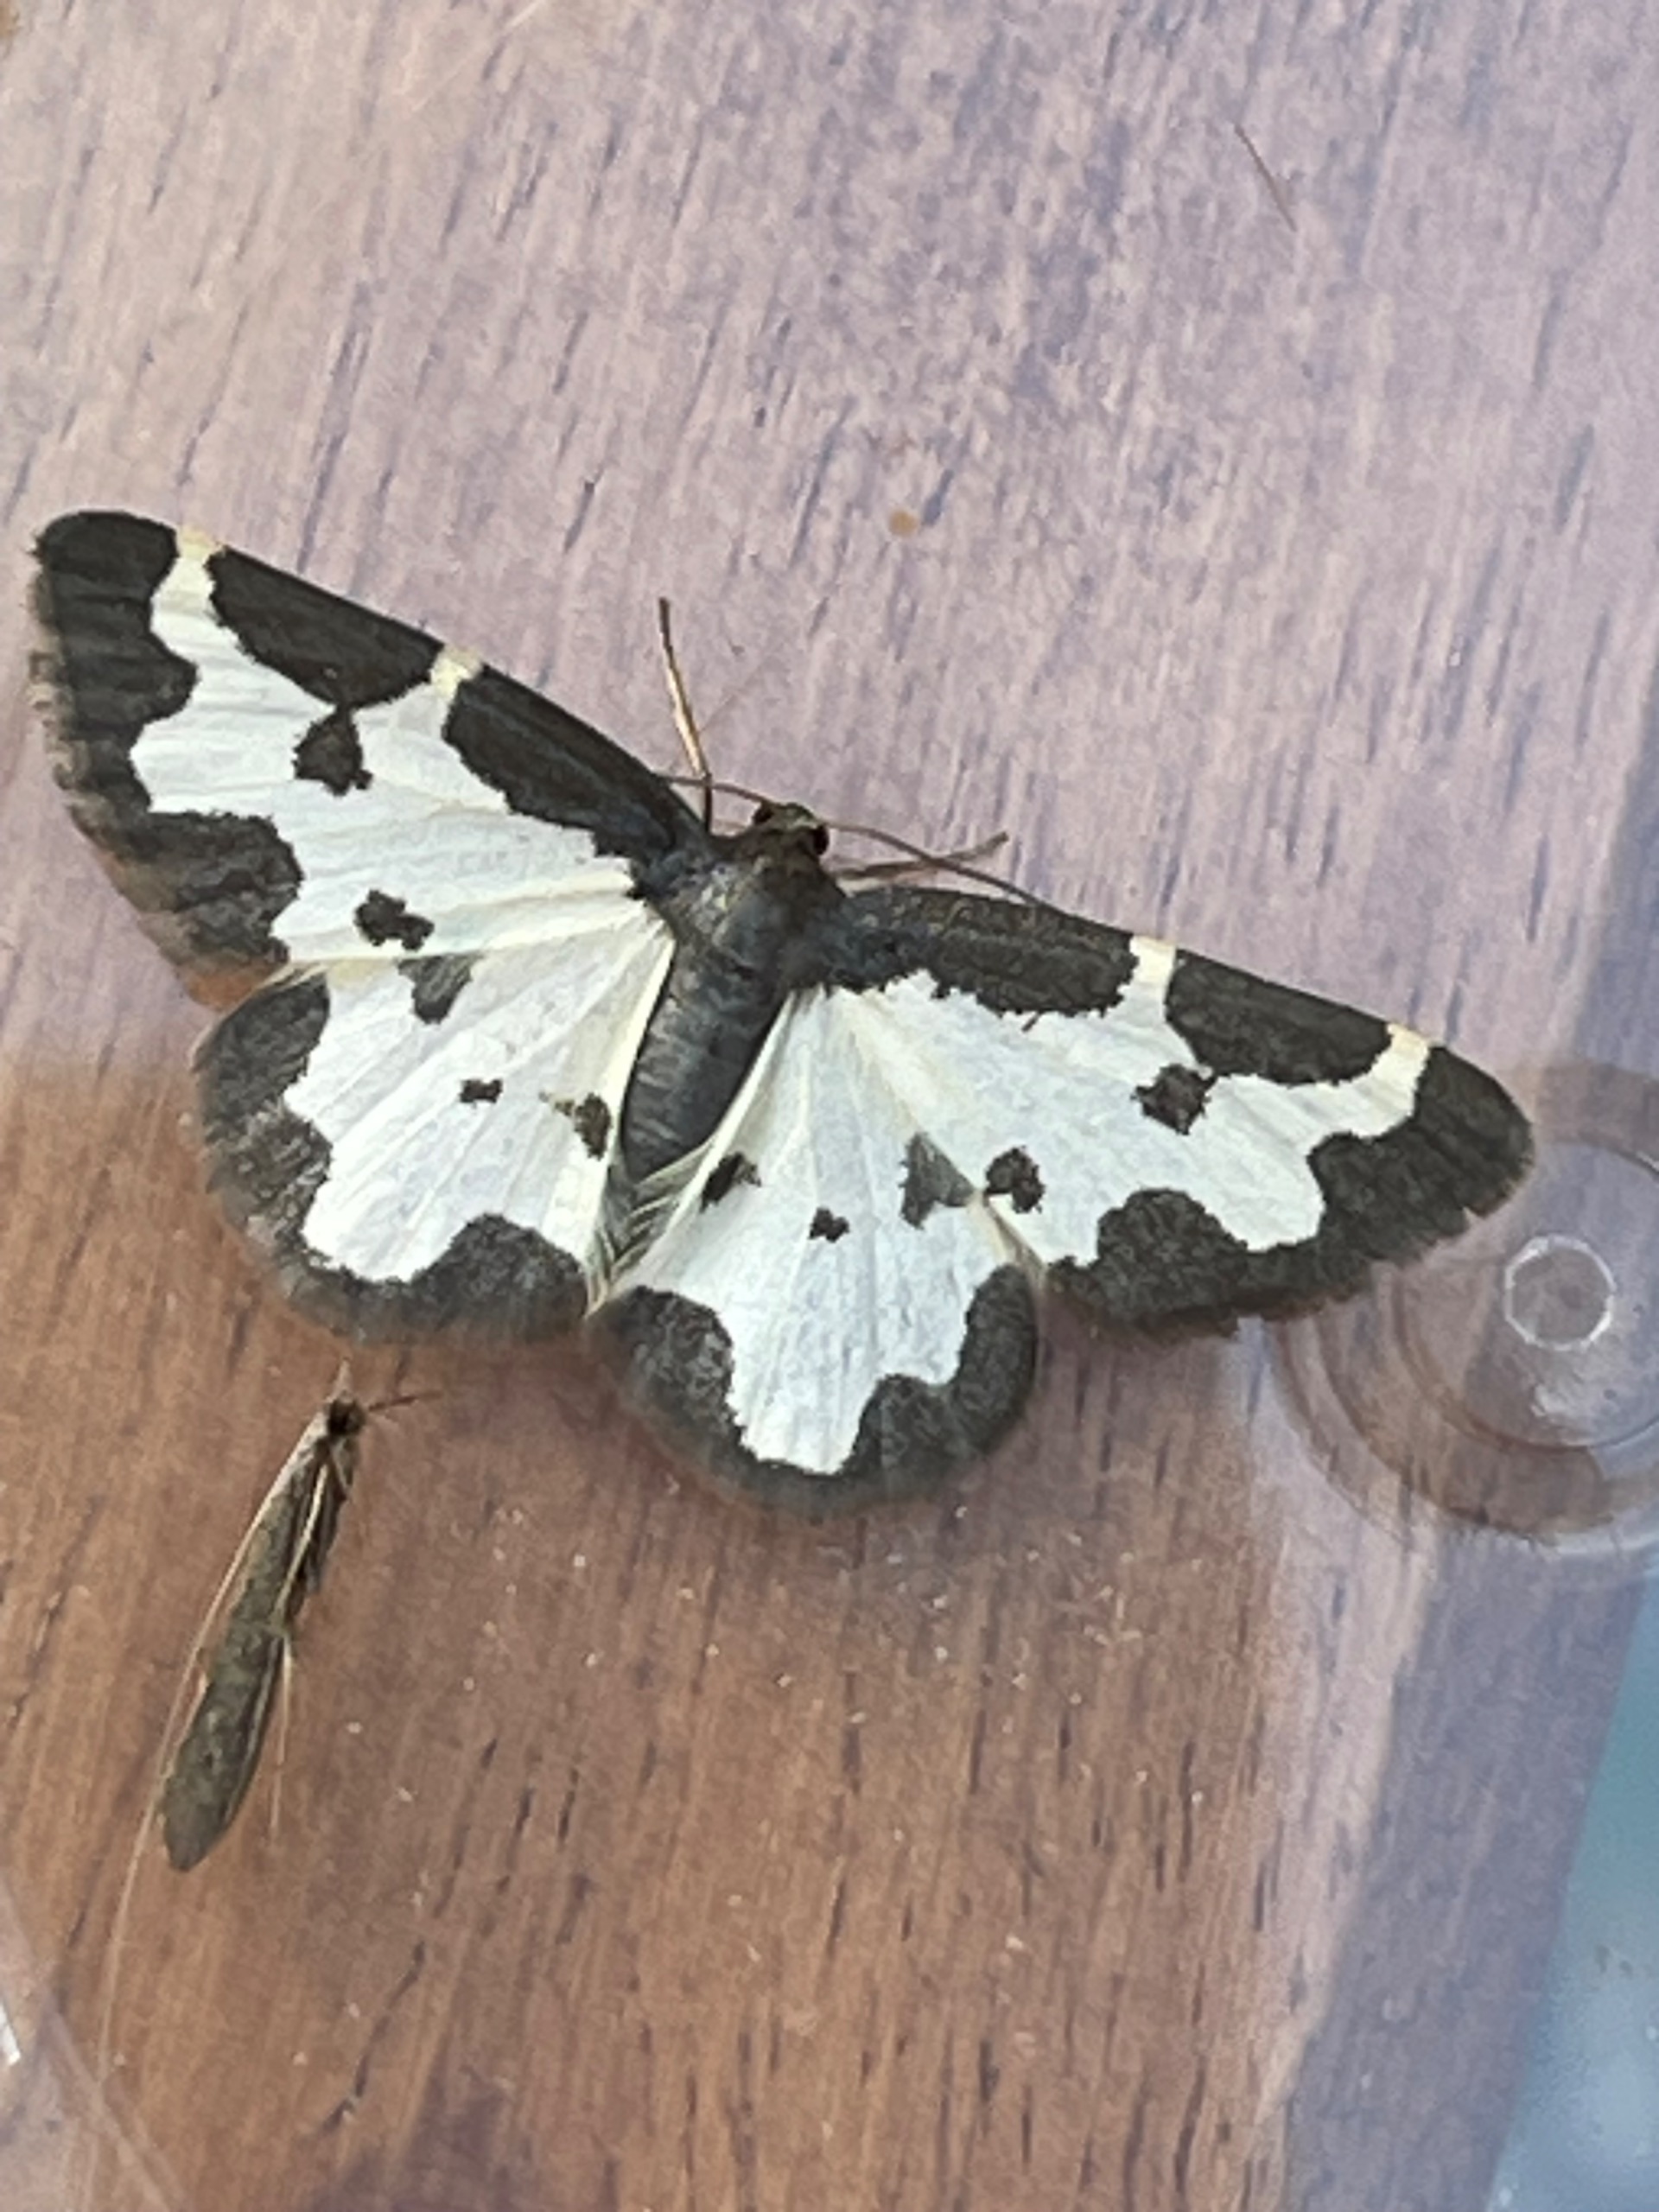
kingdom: Animalia
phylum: Arthropoda
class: Insecta
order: Lepidoptera
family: Geometridae
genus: Lomaspilis
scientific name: Lomaspilis marginata
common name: Sortrandet måler
